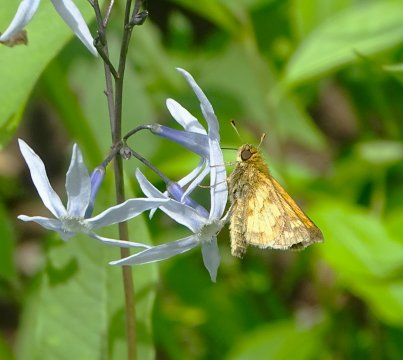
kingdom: Animalia
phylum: Arthropoda
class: Insecta
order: Lepidoptera
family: Hesperiidae
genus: Polites
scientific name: Polites coras
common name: Peck's Skipper
